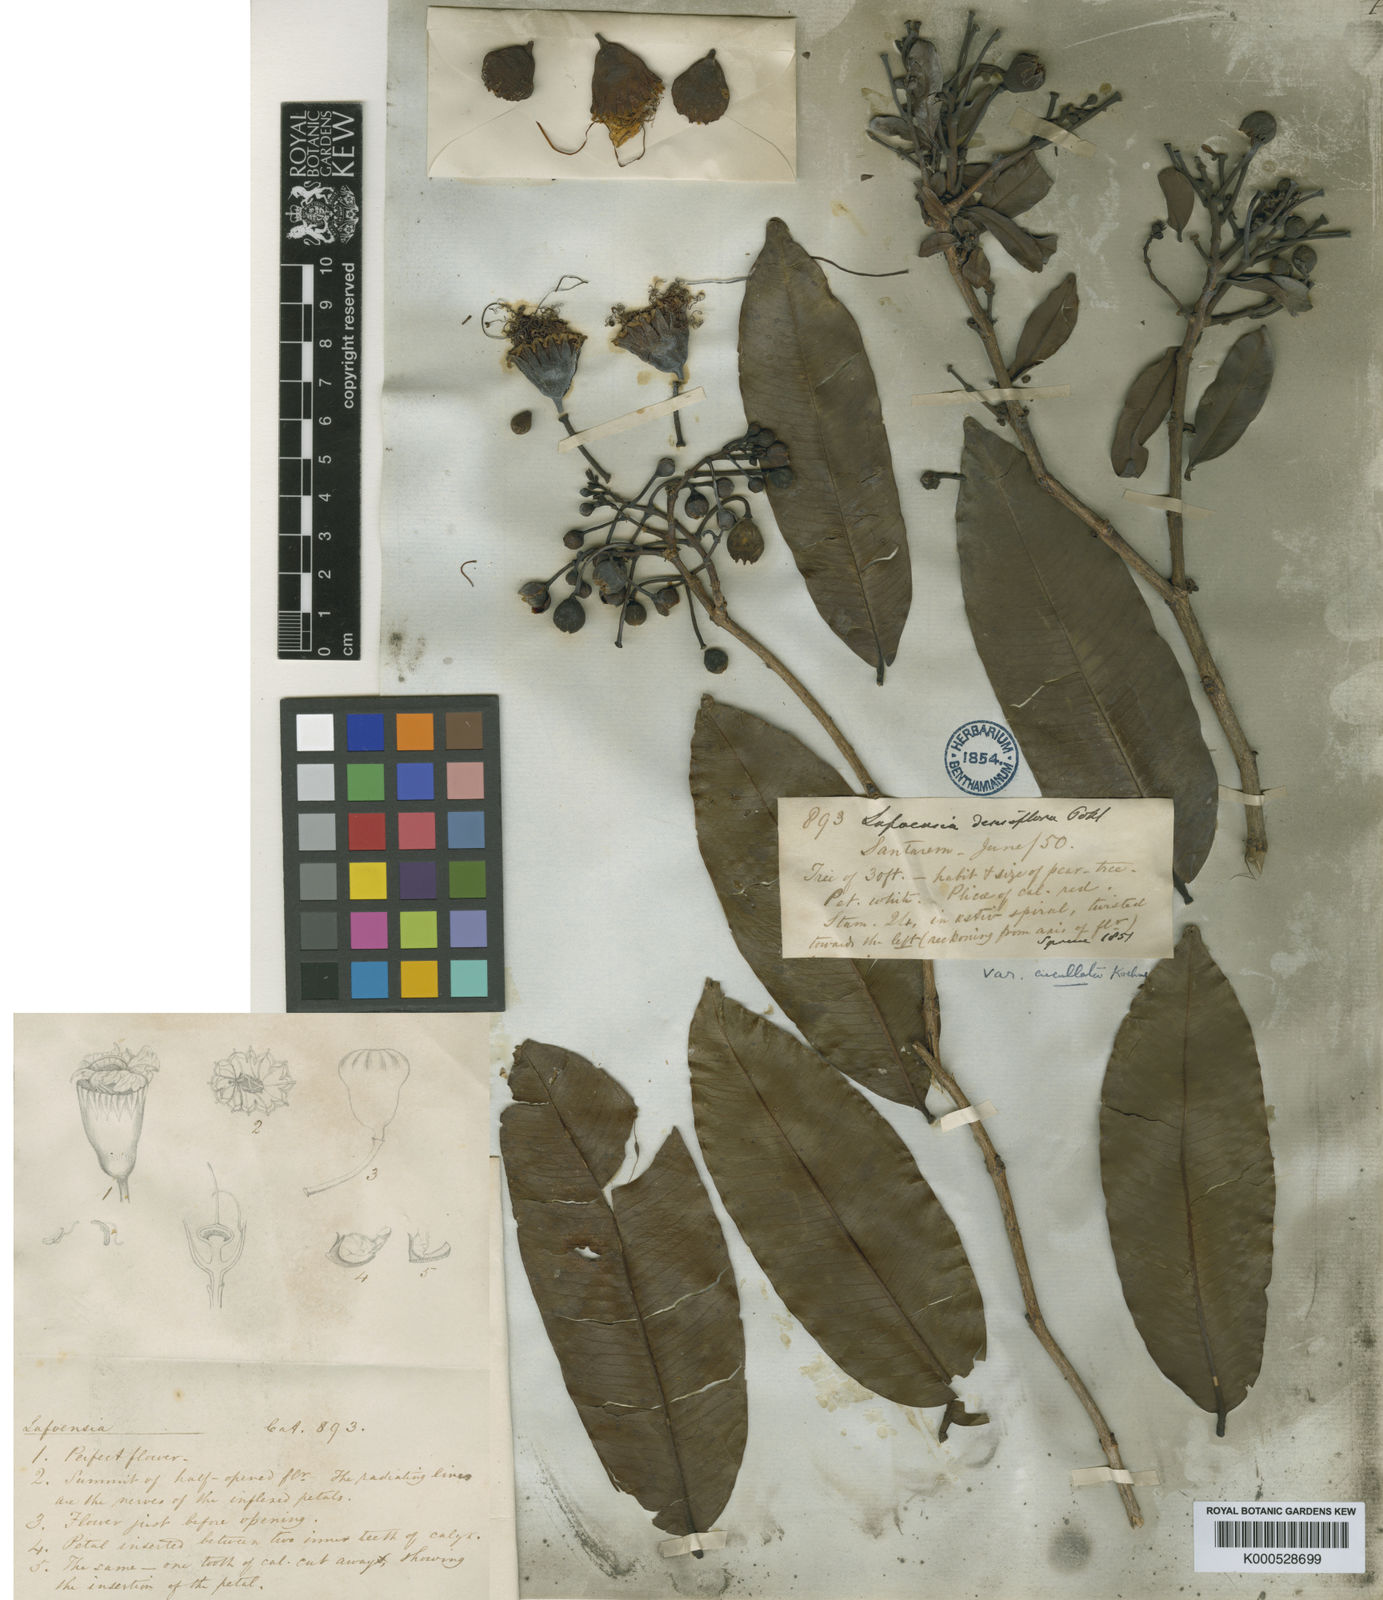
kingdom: Plantae
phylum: Tracheophyta
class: Magnoliopsida
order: Myrtales
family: Lythraceae
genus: Lafoensia
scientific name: Lafoensia vandelliana
